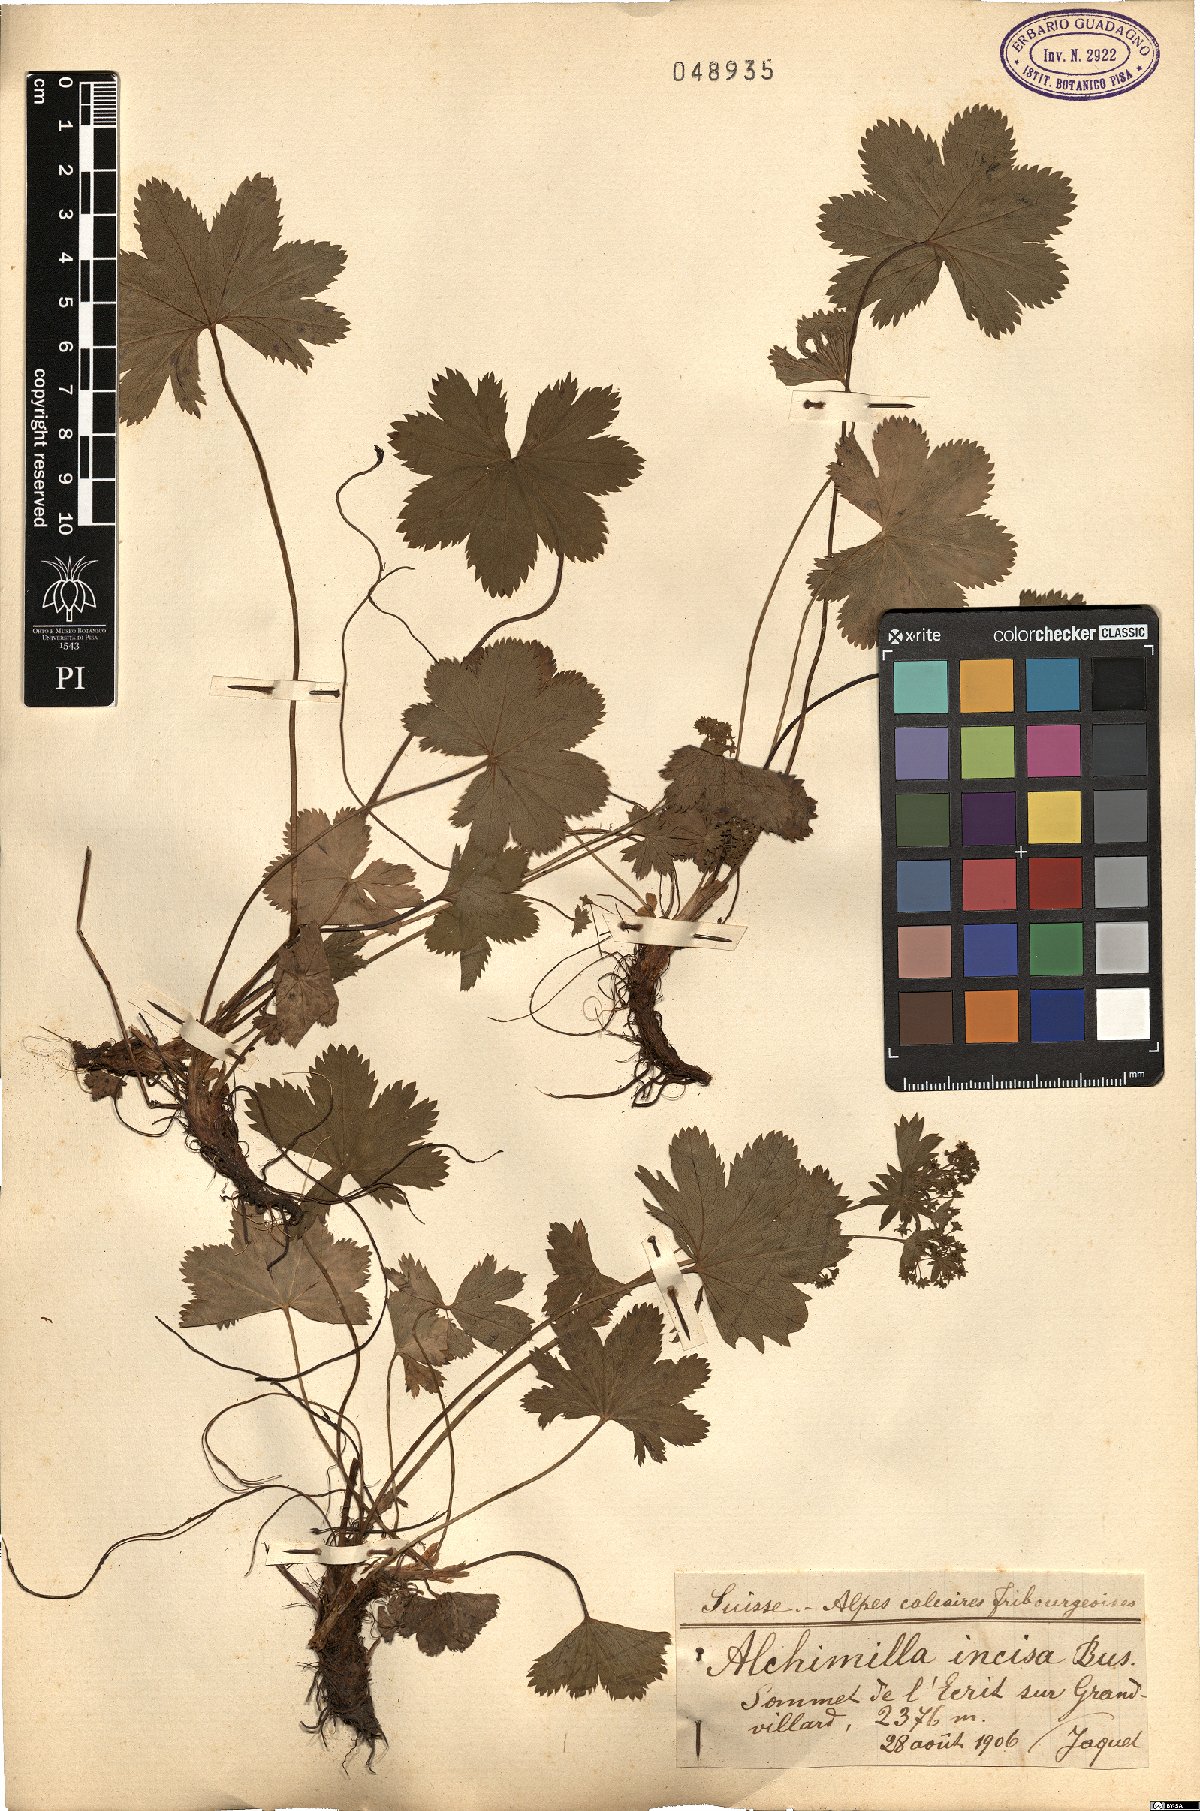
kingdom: Plantae
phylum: Tracheophyta
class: Magnoliopsida
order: Rosales
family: Rosaceae
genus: Alchemilla
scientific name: Alchemilla incisa
